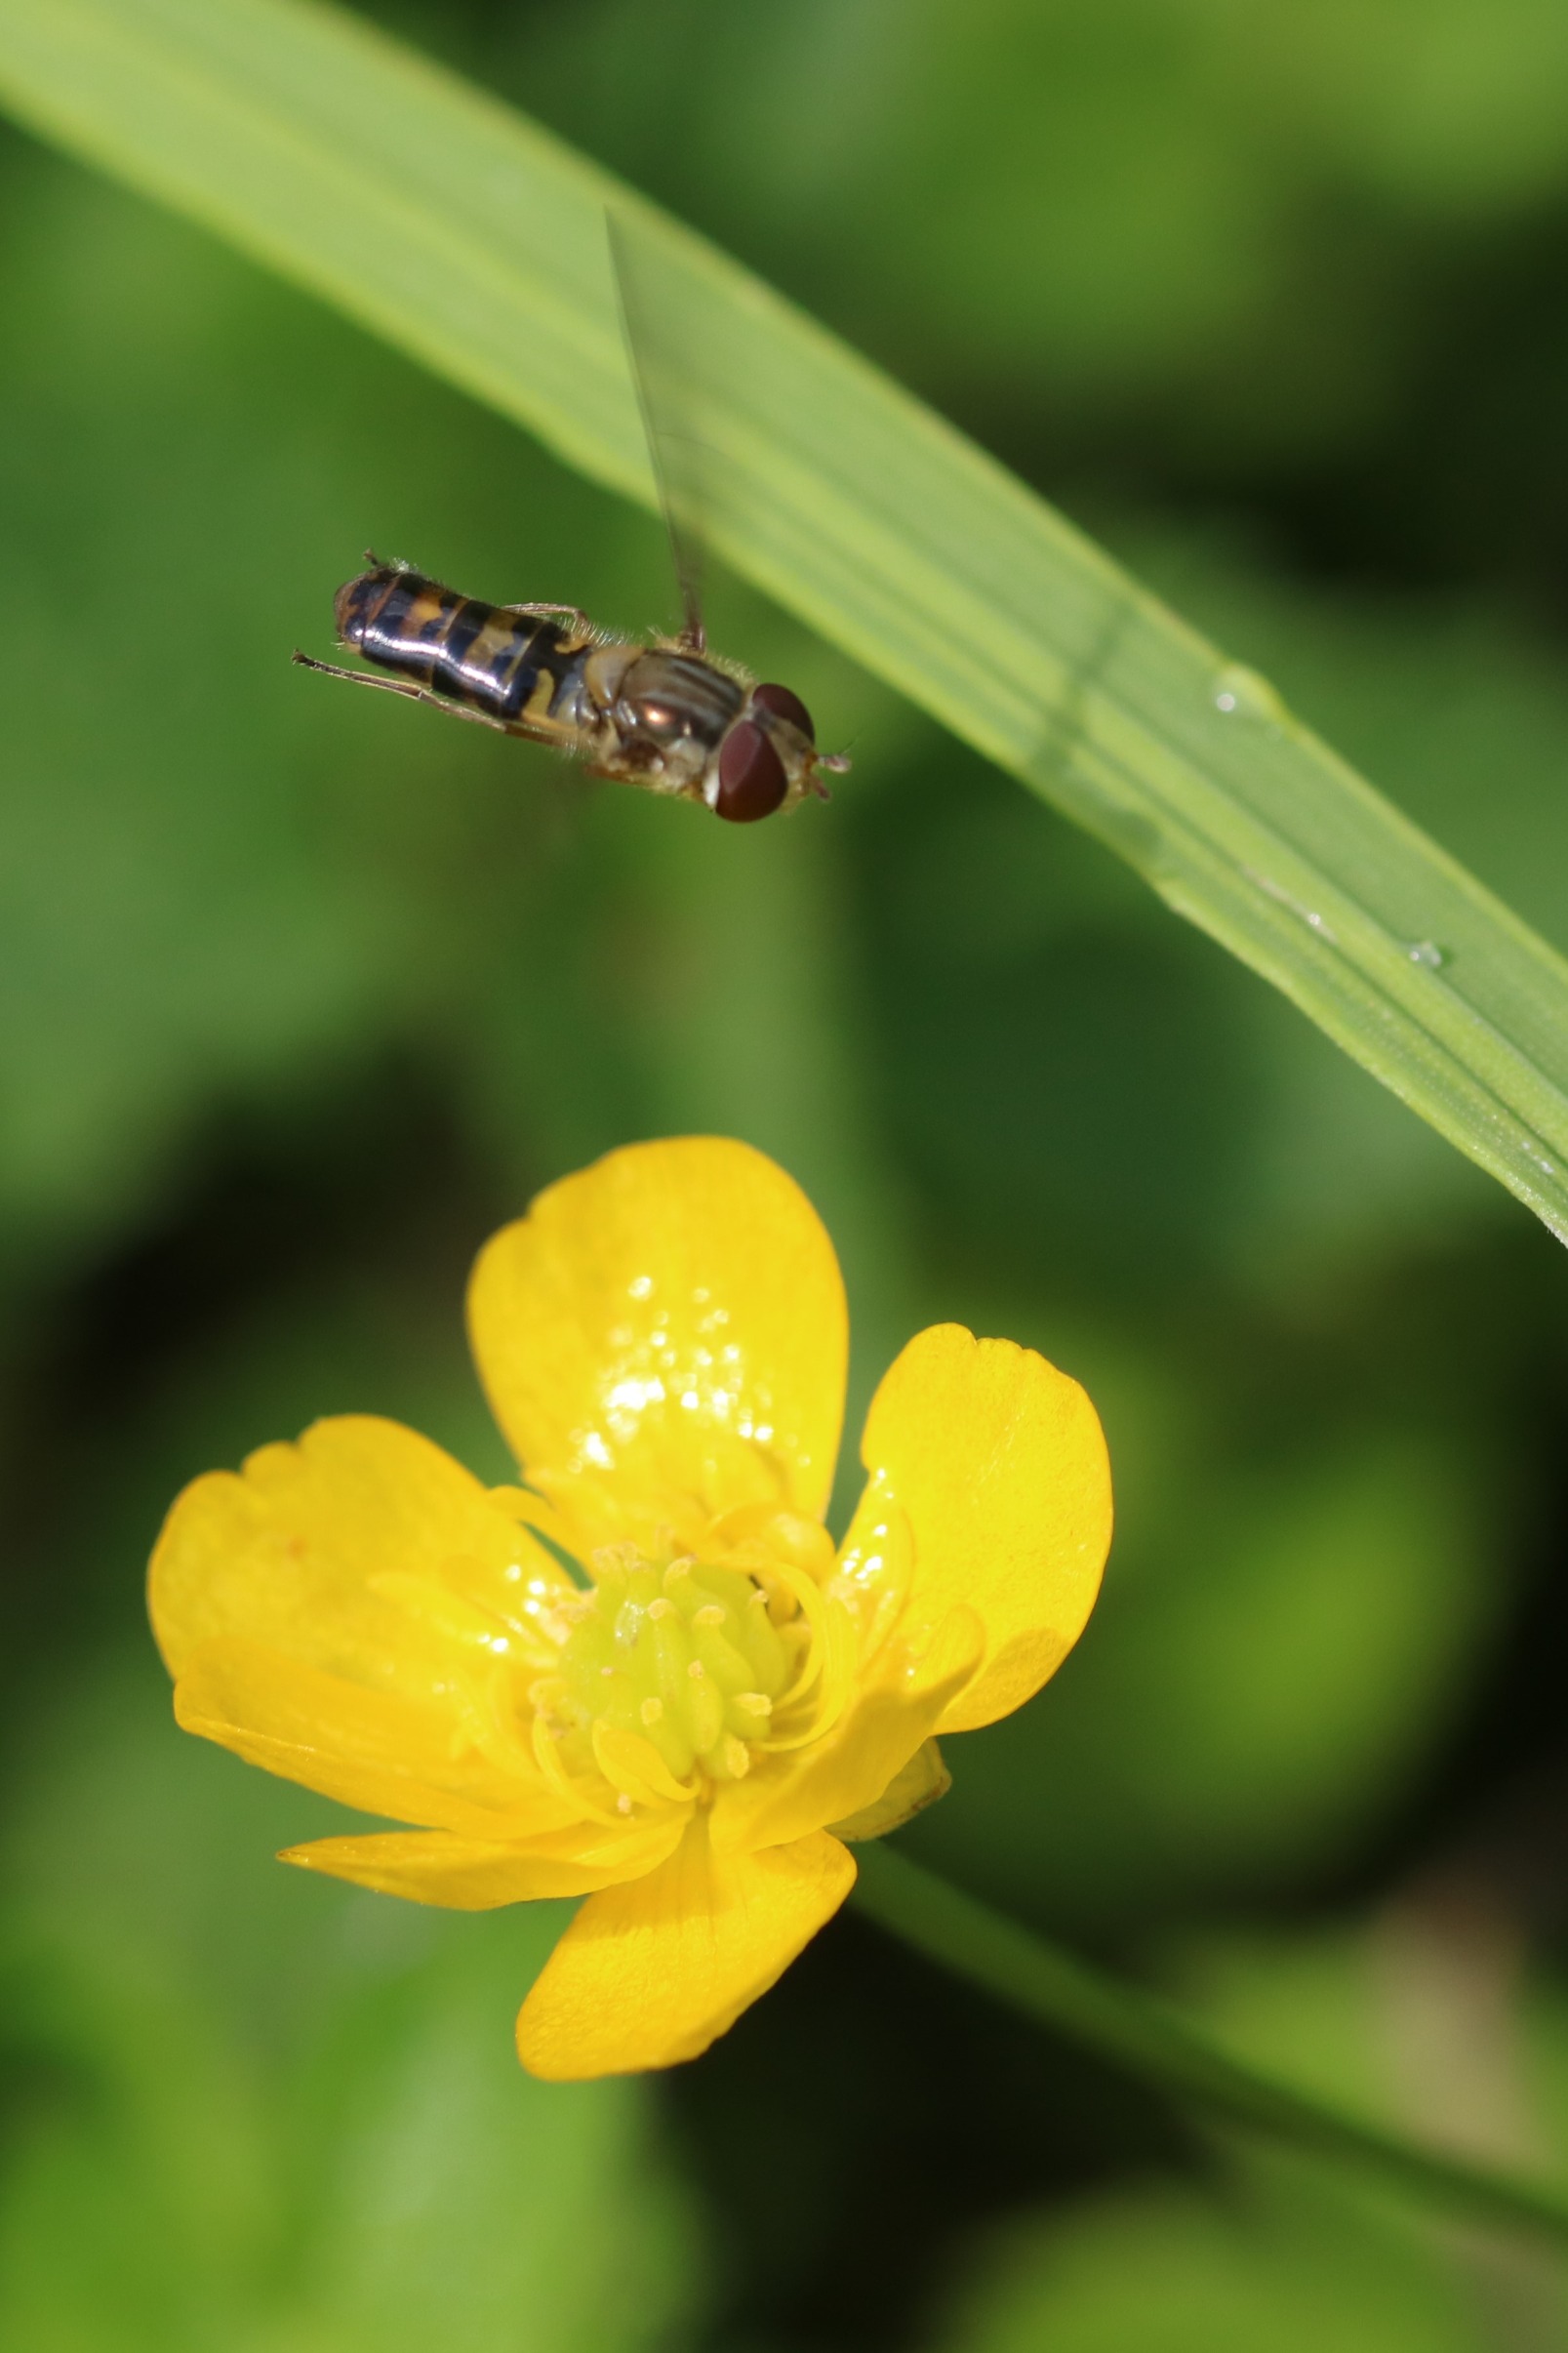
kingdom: Animalia
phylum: Arthropoda
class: Insecta
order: Diptera
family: Syrphidae
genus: Episyrphus
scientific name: Episyrphus balteatus
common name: Dobbeltbåndet svirreflue
